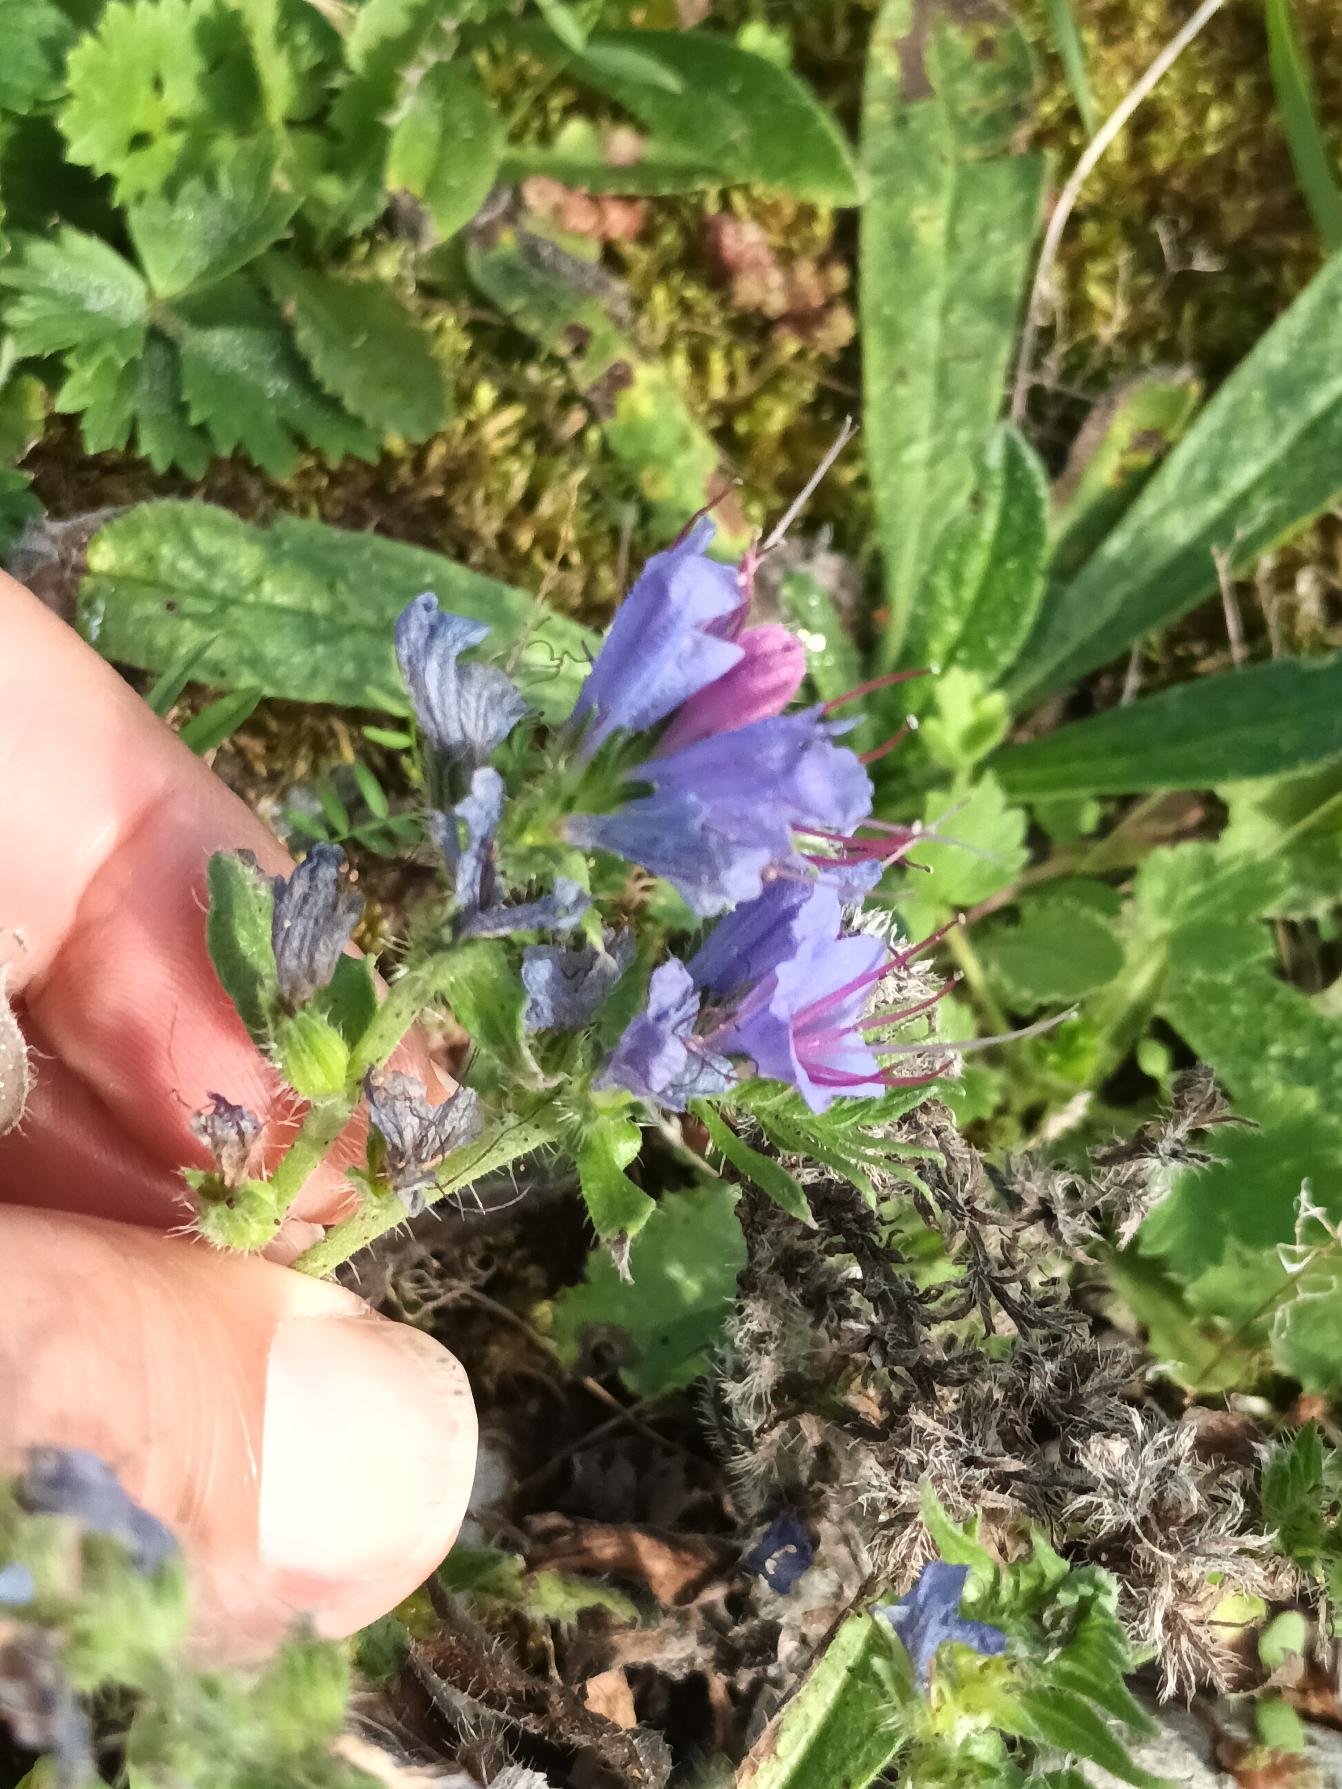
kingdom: Plantae
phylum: Tracheophyta
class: Magnoliopsida
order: Boraginales
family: Boraginaceae
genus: Echium
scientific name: Echium vulgare
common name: Slangehoved
